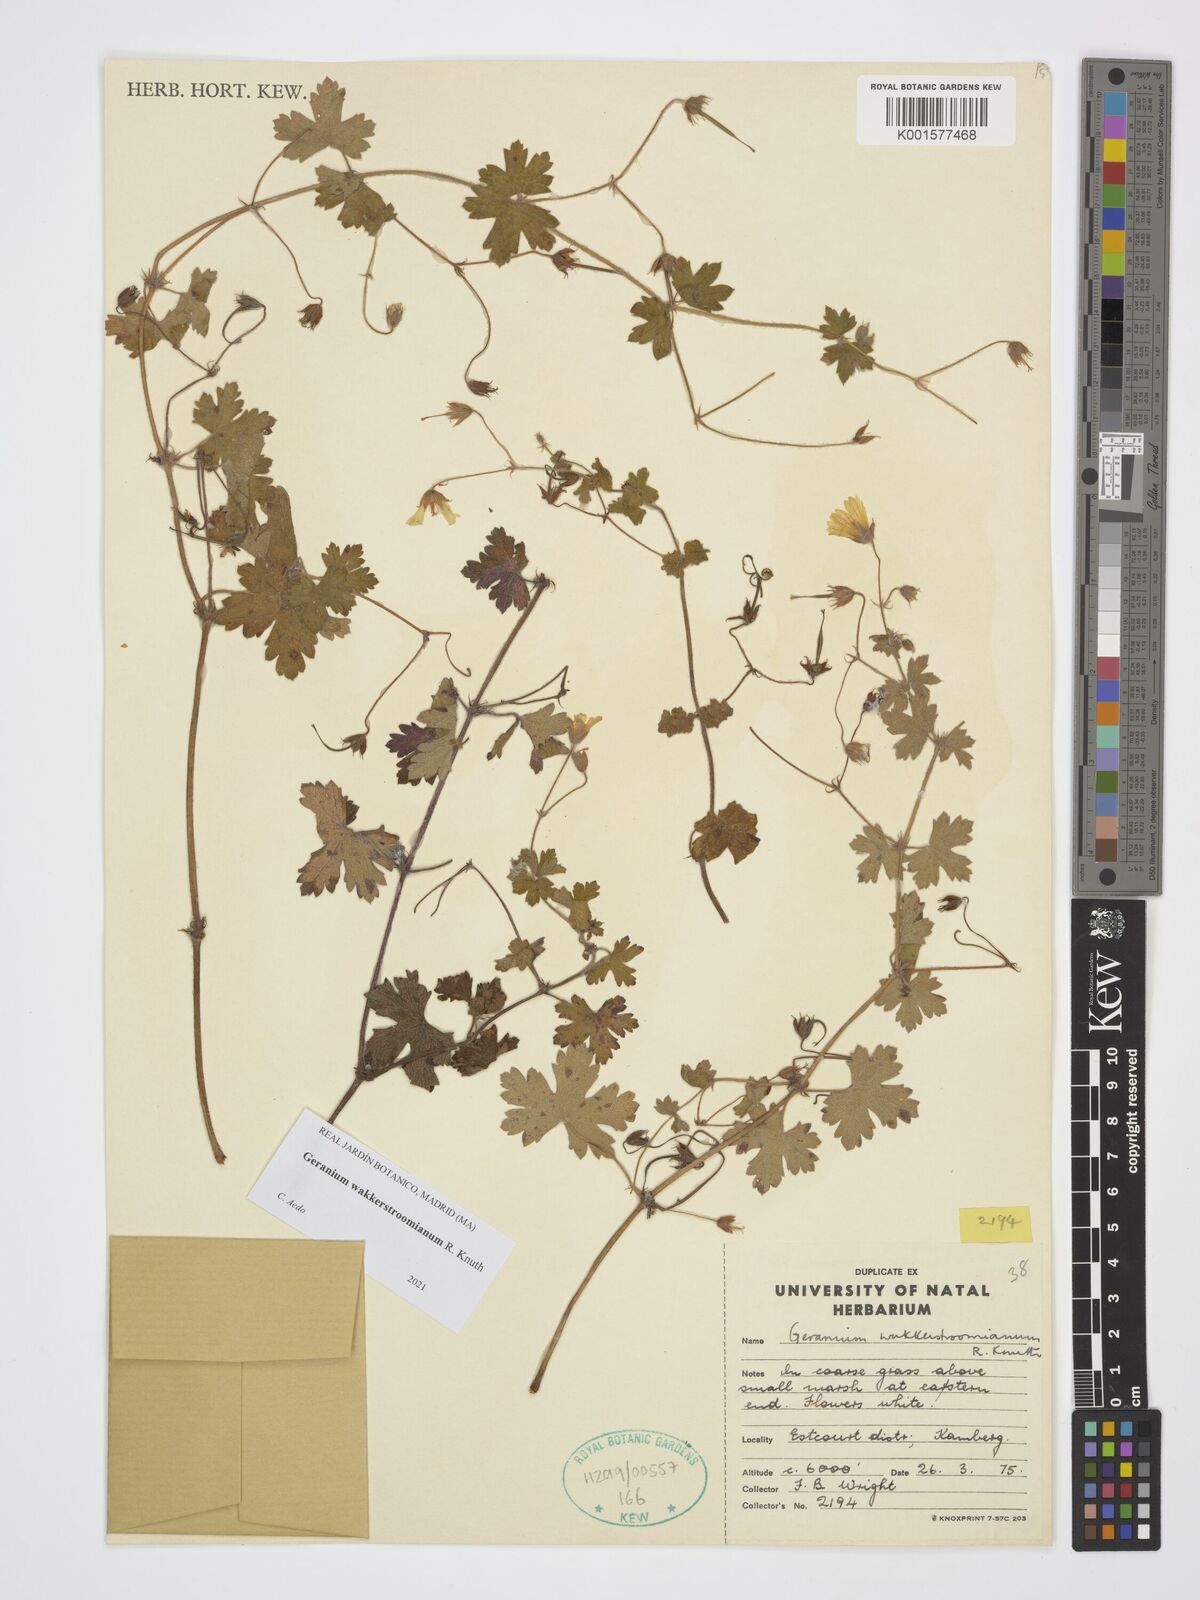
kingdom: Plantae
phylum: Tracheophyta
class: Magnoliopsida
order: Geraniales
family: Geraniaceae
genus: Geranium
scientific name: Geranium wakkerstroomianum
